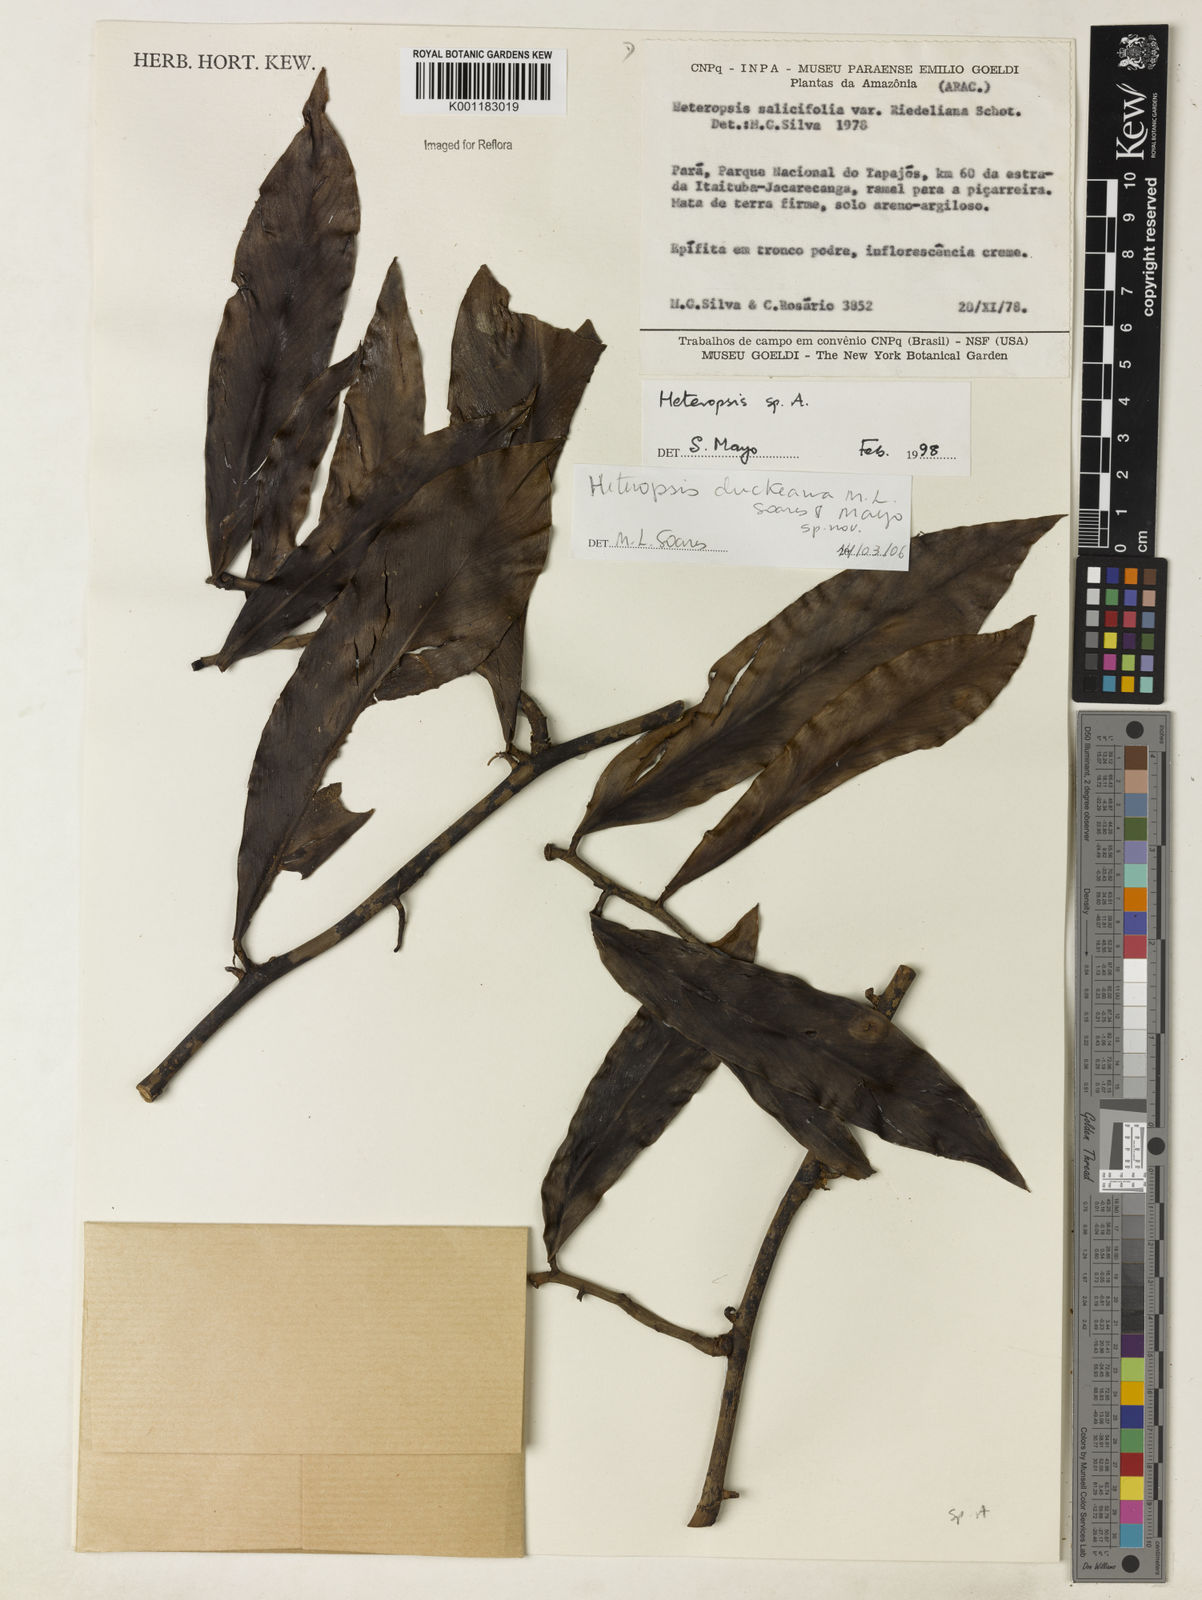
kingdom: Plantae
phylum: Tracheophyta
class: Liliopsida
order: Alismatales
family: Araceae
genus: Heteropsis
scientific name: Heteropsis duckeana
